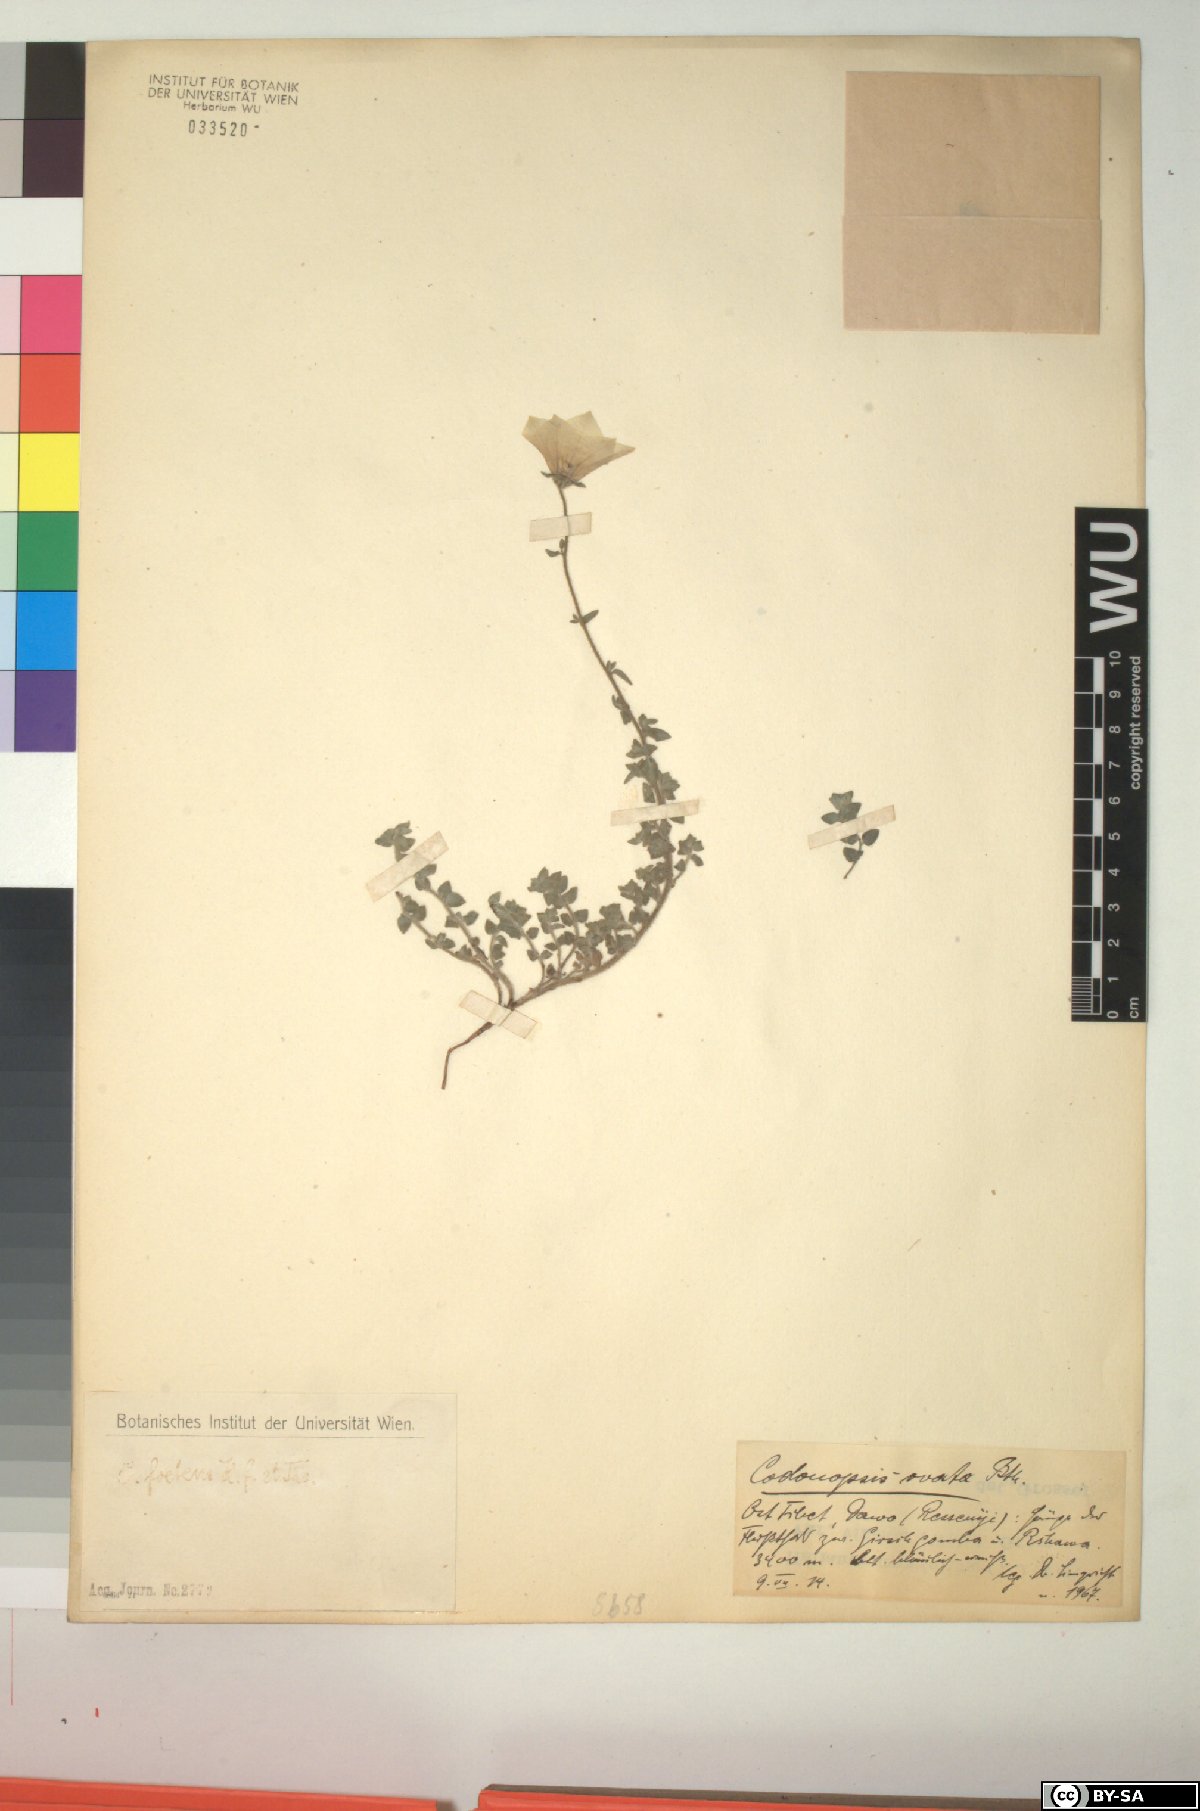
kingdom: Plantae
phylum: Tracheophyta
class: Magnoliopsida
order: Asterales
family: Campanulaceae
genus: Codonopsis
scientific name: Codonopsis ovata
